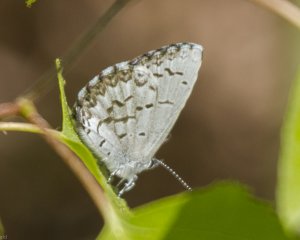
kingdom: Animalia
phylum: Arthropoda
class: Insecta
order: Lepidoptera
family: Lycaenidae
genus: Celastrina
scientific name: Celastrina lucia
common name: Northern Spring Azure
